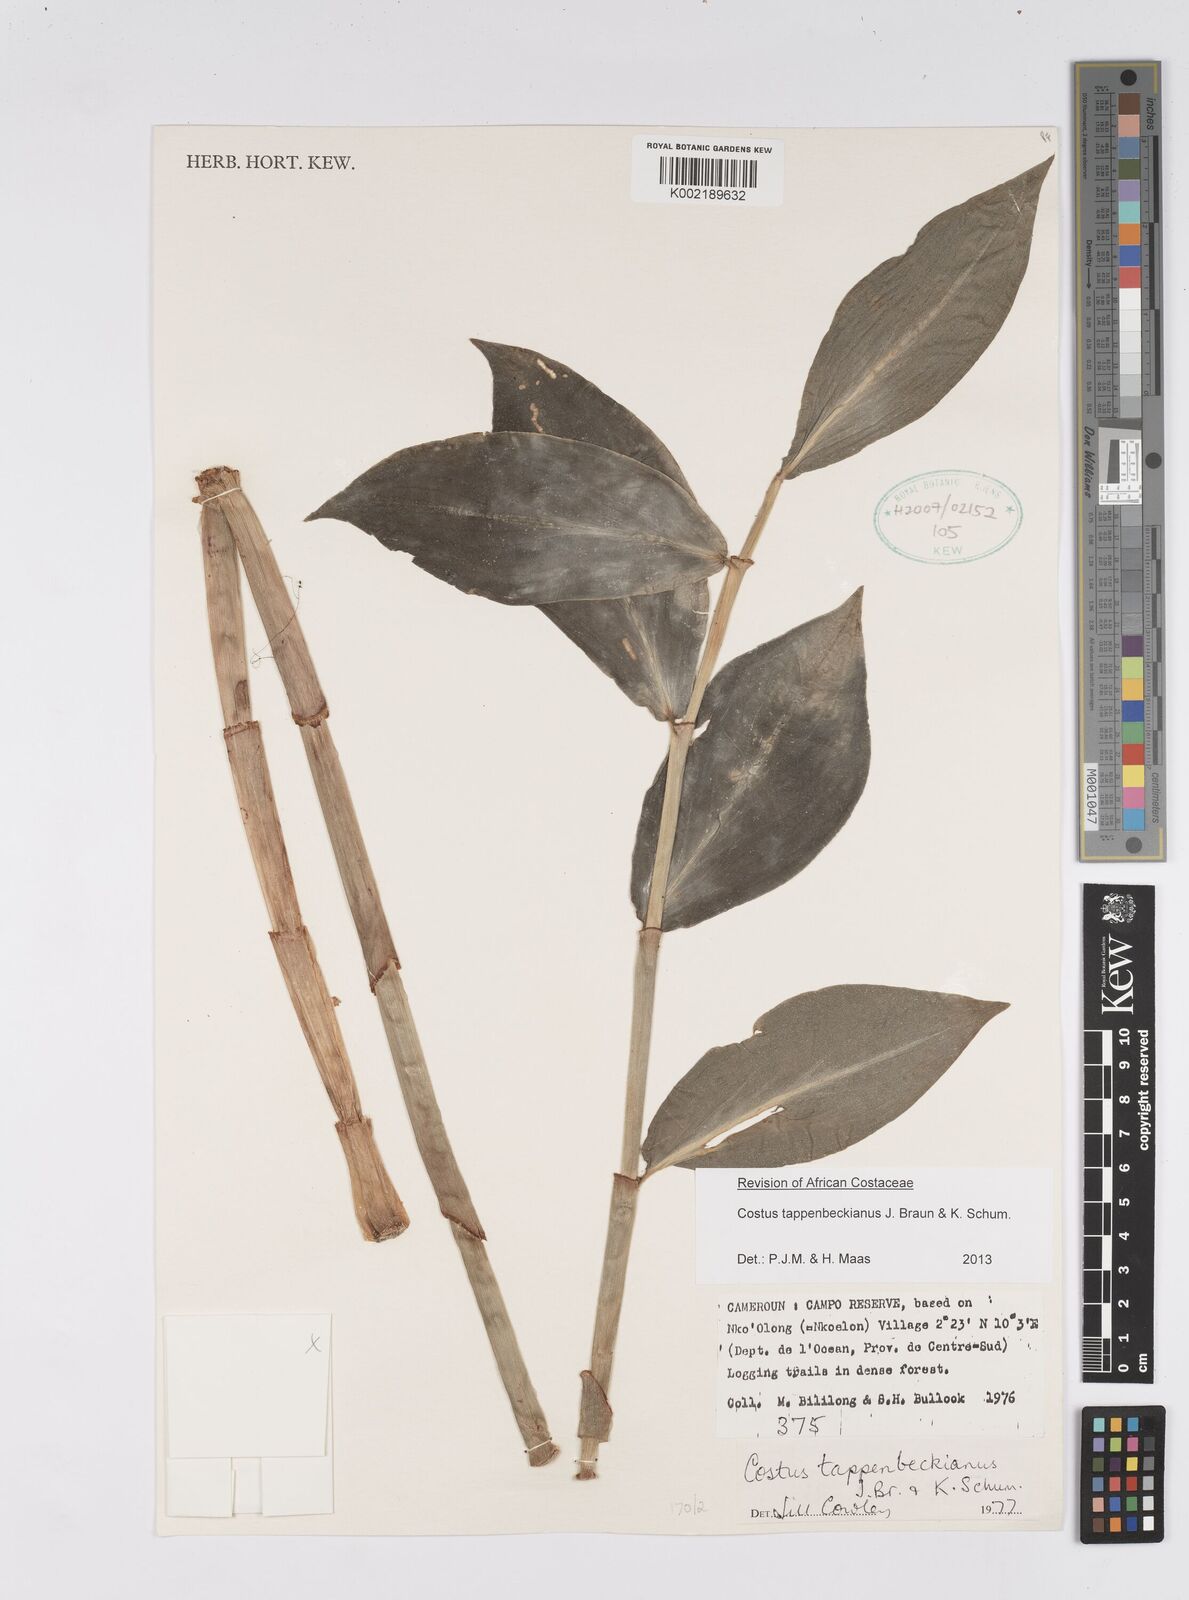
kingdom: Plantae
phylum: Tracheophyta
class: Liliopsida
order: Zingiberales
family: Costaceae
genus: Costus
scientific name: Costus tappenbeckianus
